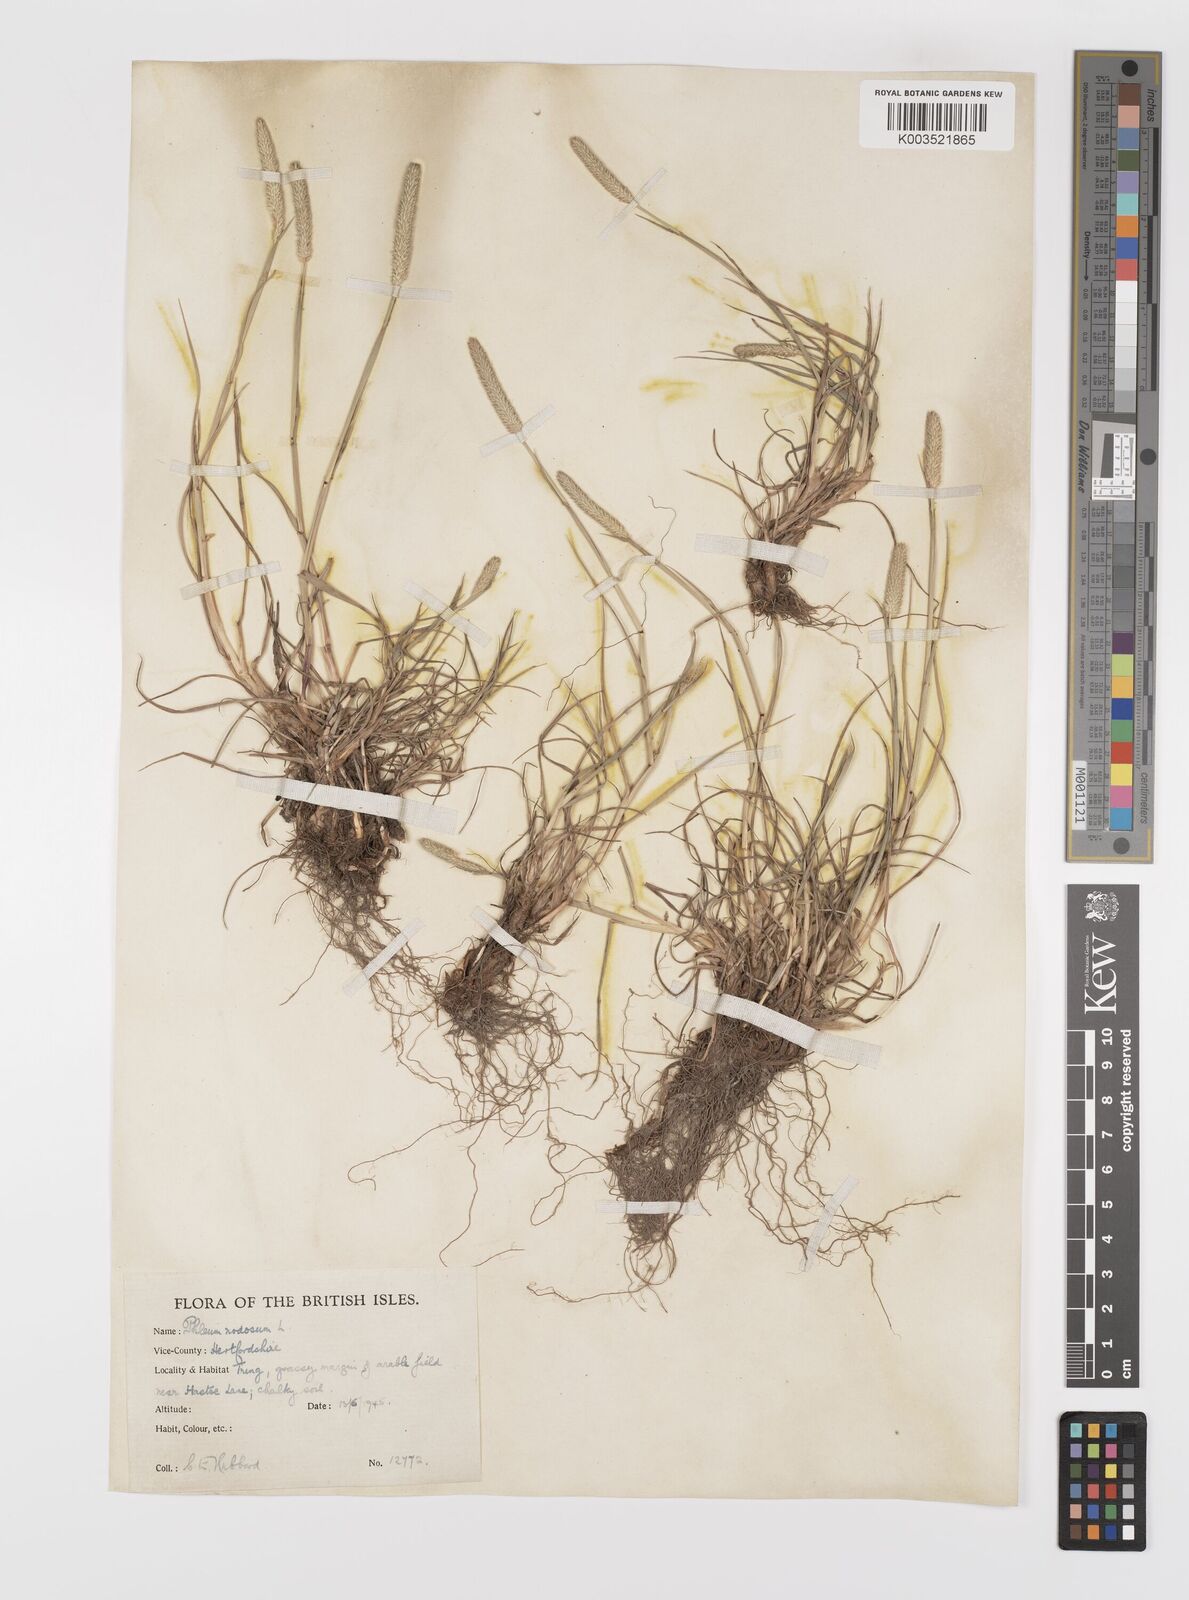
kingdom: Plantae
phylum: Tracheophyta
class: Liliopsida
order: Poales
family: Poaceae
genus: Phleum
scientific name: Phleum bertolonii
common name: Smaller cat's-tail
